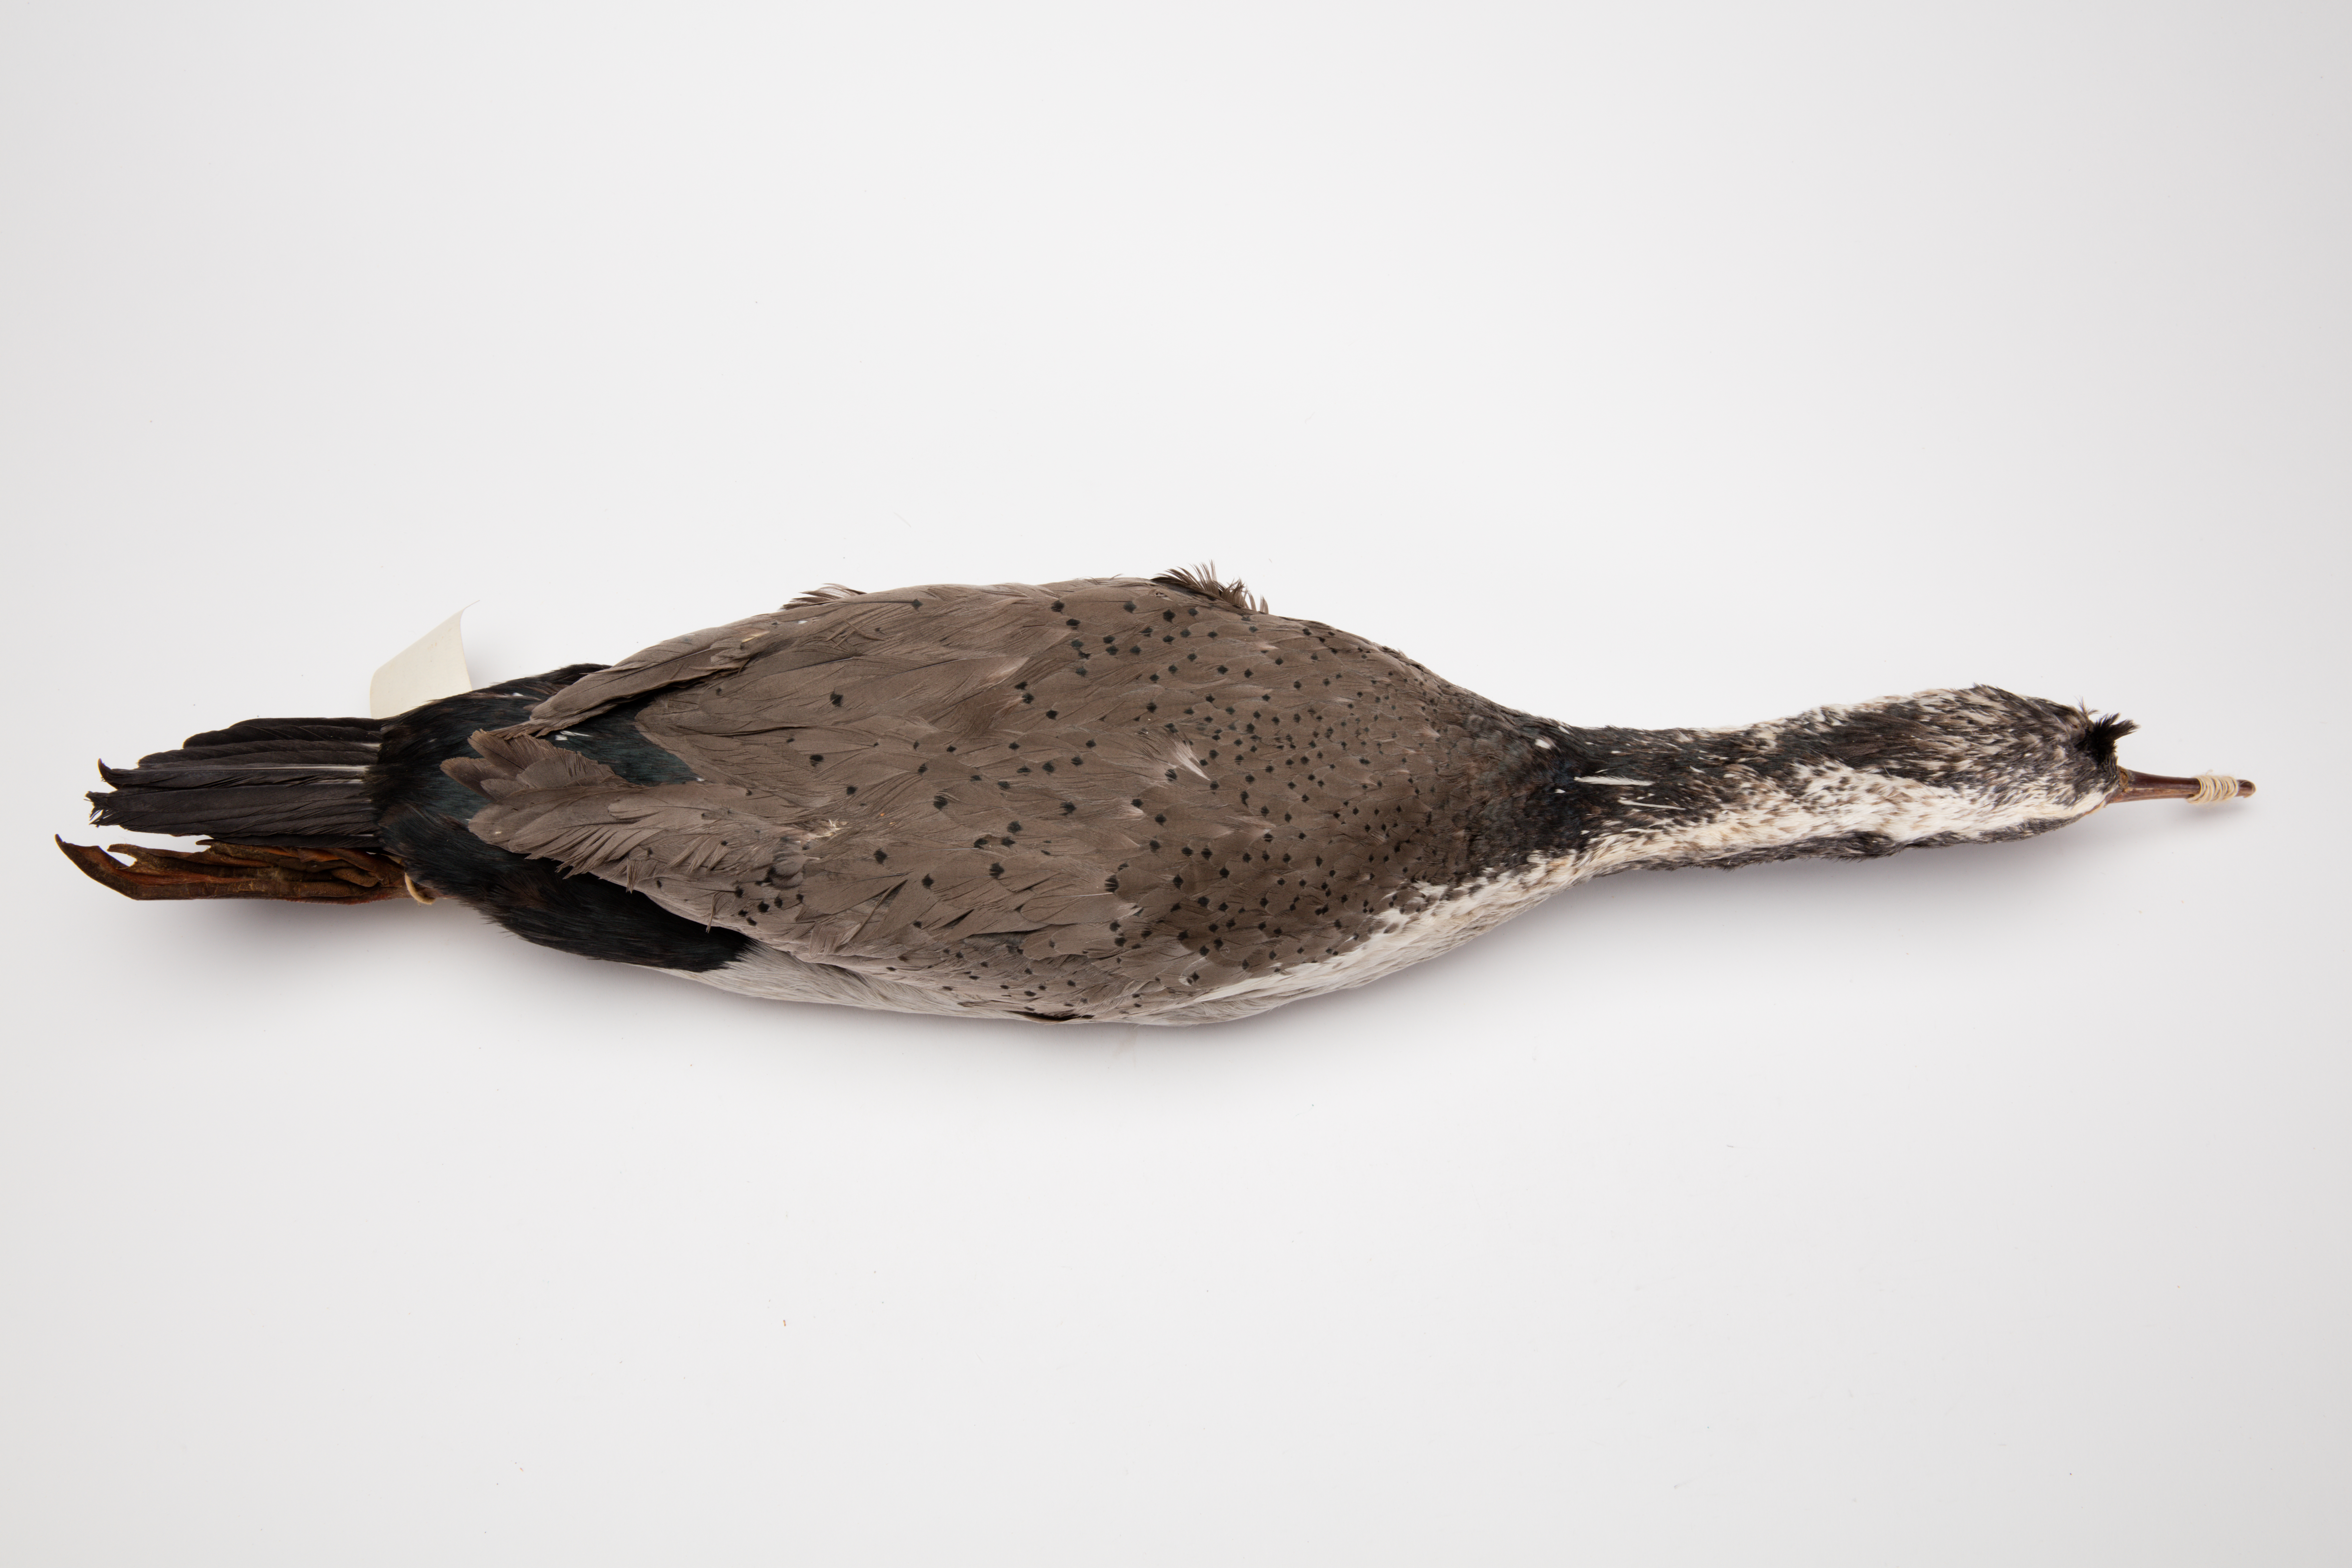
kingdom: Animalia
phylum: Chordata
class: Aves
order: Suliformes
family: Phalacrocoracidae
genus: Phalacrocorax
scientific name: Phalacrocorax punctatus
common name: Spotted shag
